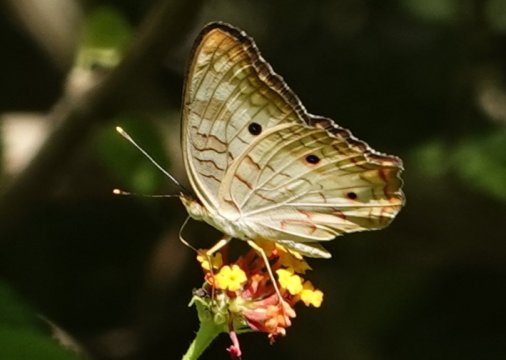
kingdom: Animalia
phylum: Arthropoda
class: Insecta
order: Lepidoptera
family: Nymphalidae
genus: Anartia
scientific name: Anartia jatrophae
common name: White Peacock
